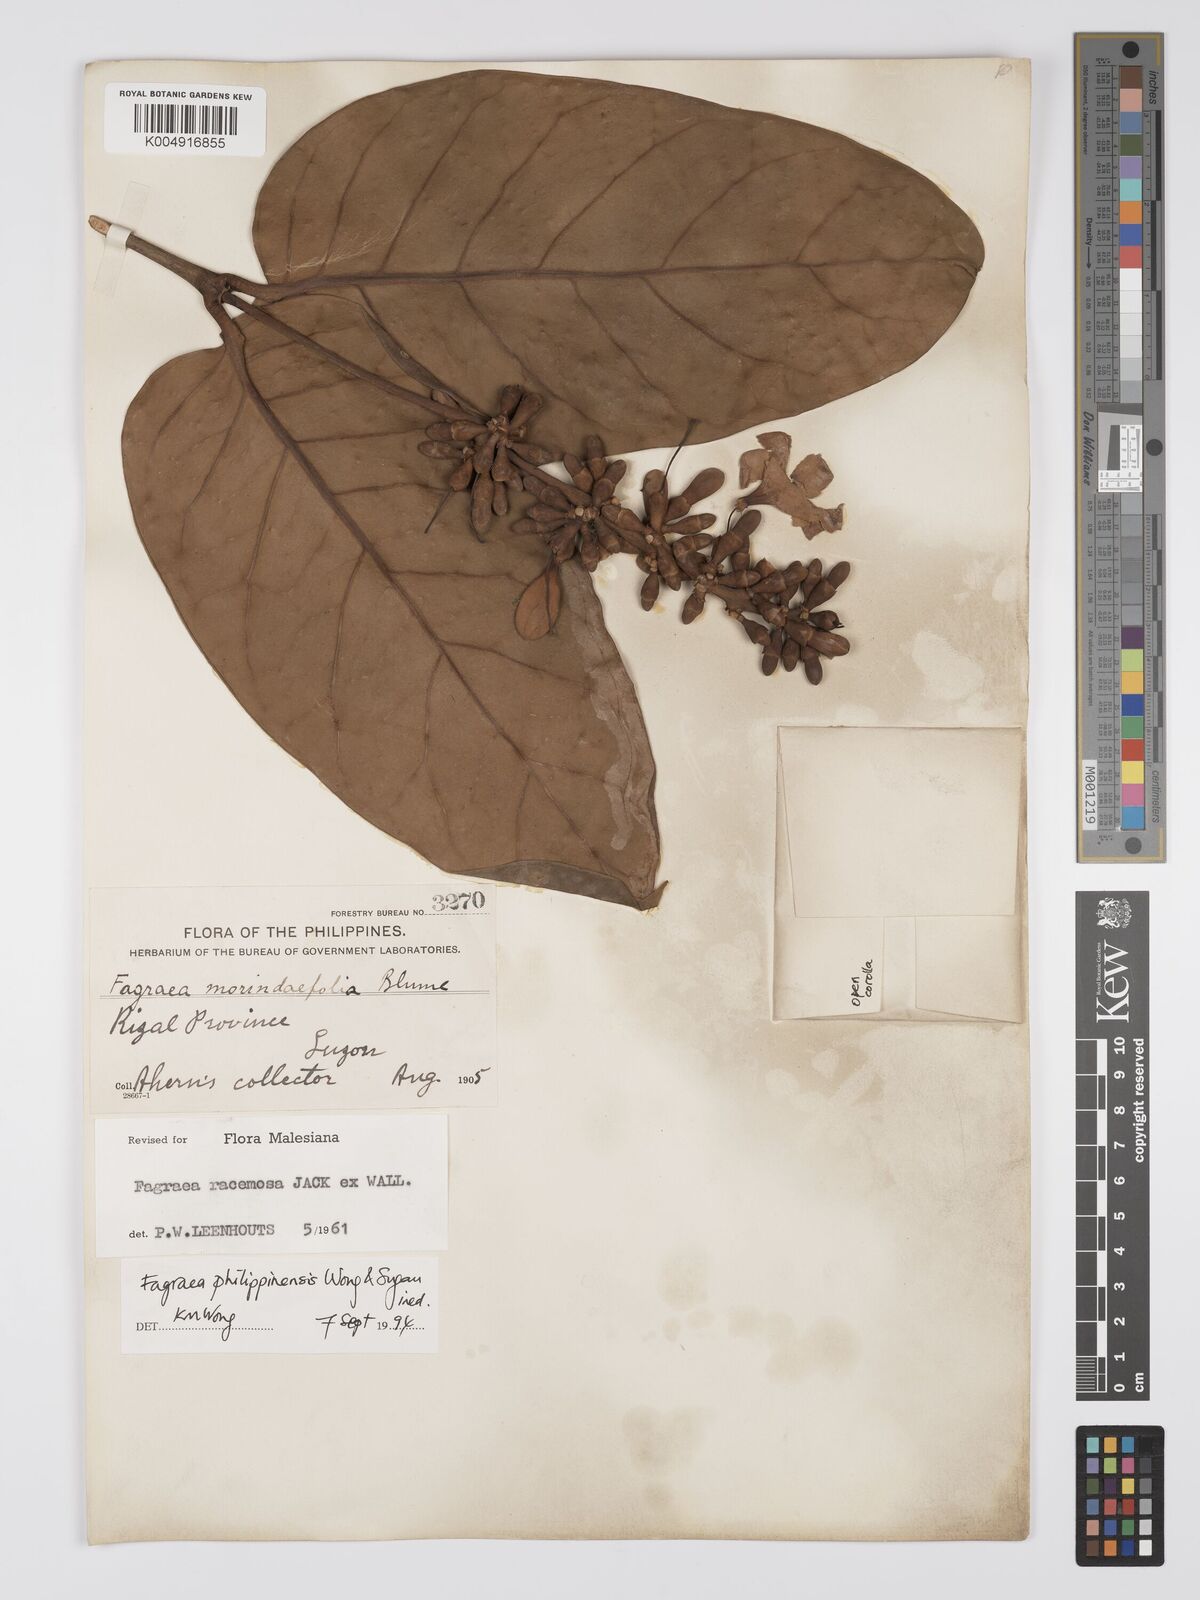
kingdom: Plantae
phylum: Tracheophyta
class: Magnoliopsida
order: Gentianales
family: Gentianaceae
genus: Utania
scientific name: Utania racemosa
